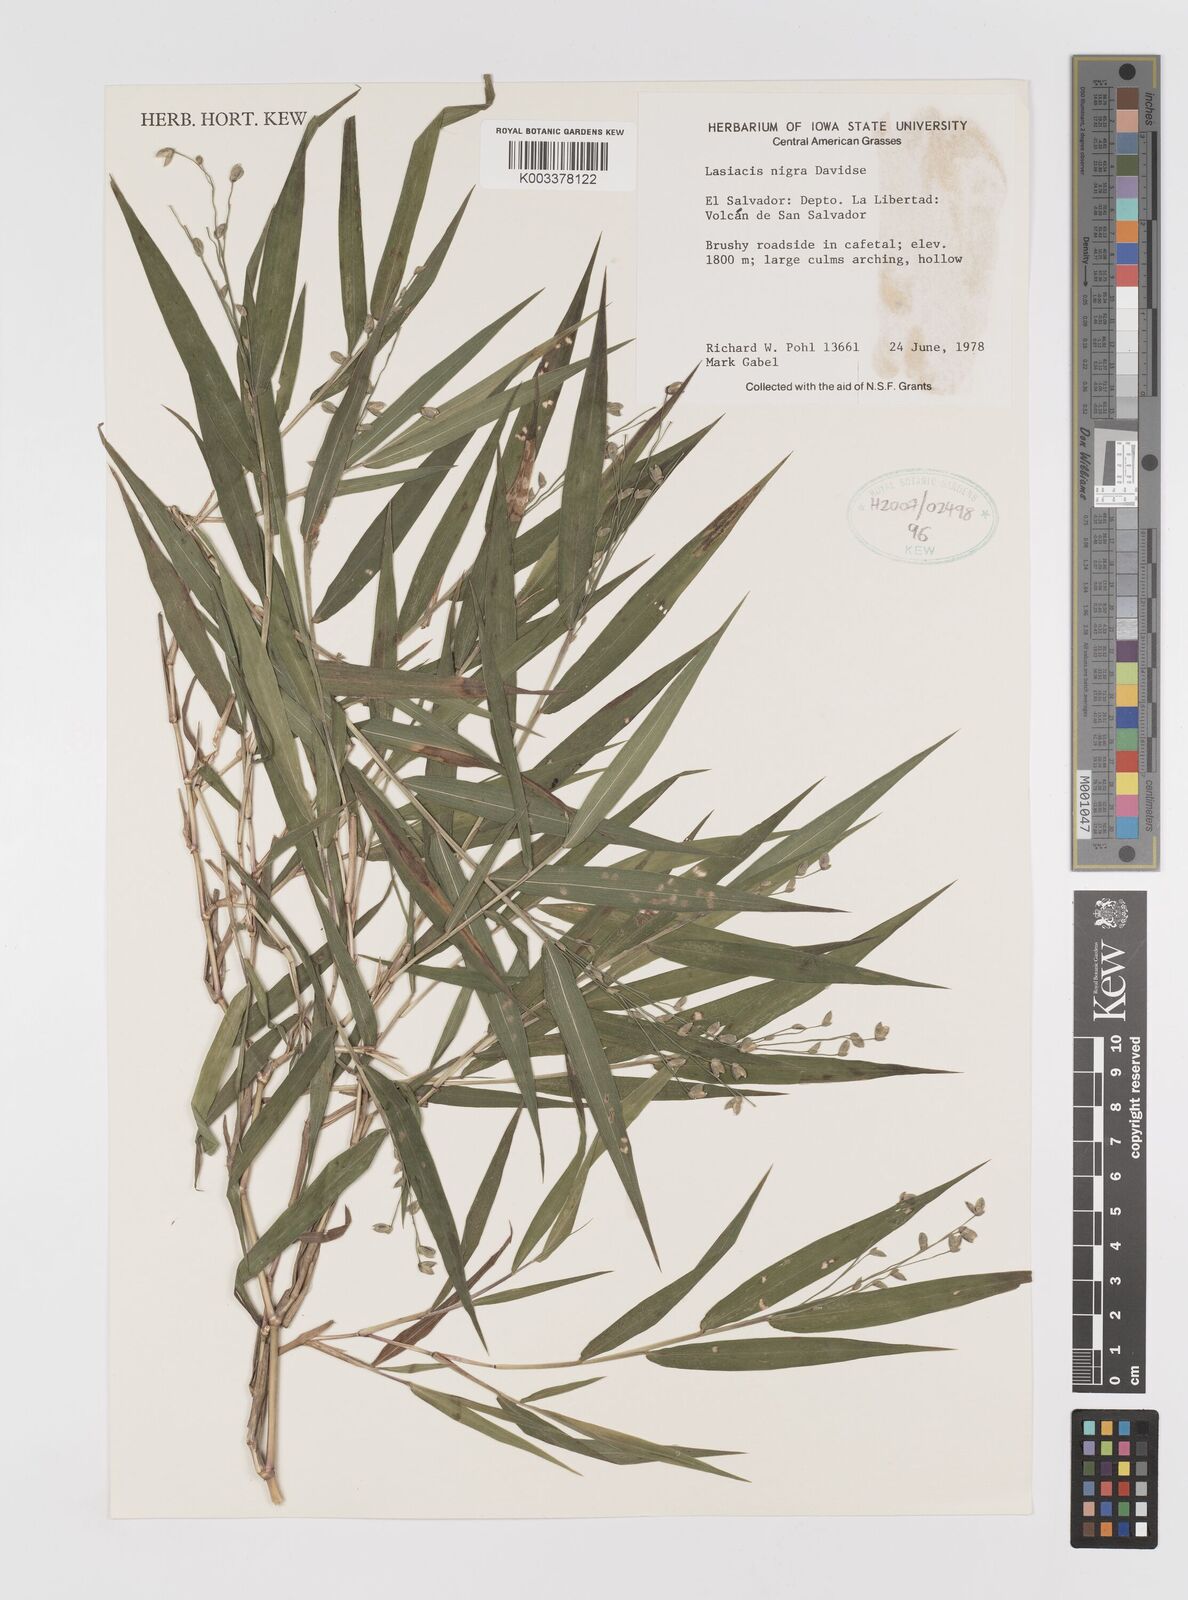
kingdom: Plantae
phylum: Tracheophyta
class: Liliopsida
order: Poales
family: Poaceae
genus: Lasiacis
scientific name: Lasiacis nigra
